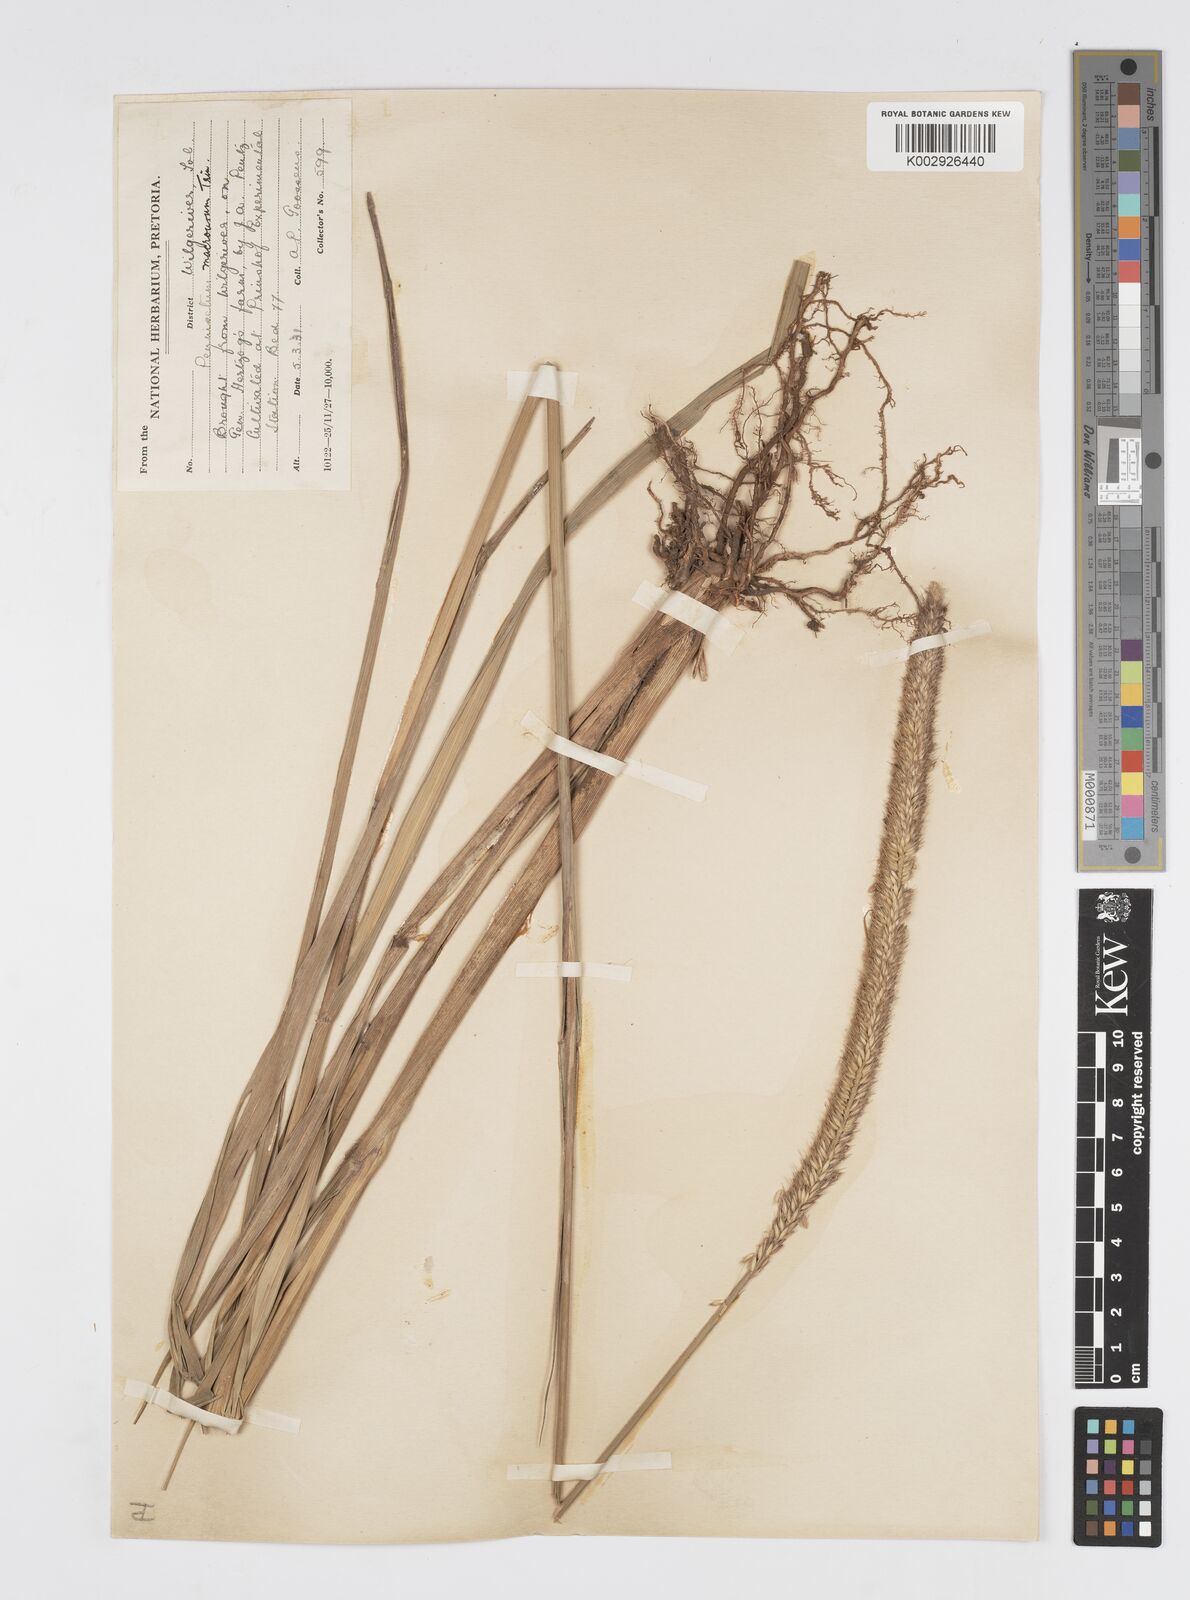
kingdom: Plantae
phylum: Tracheophyta
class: Liliopsida
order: Poales
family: Poaceae
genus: Cenchrus
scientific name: Cenchrus caudatus
